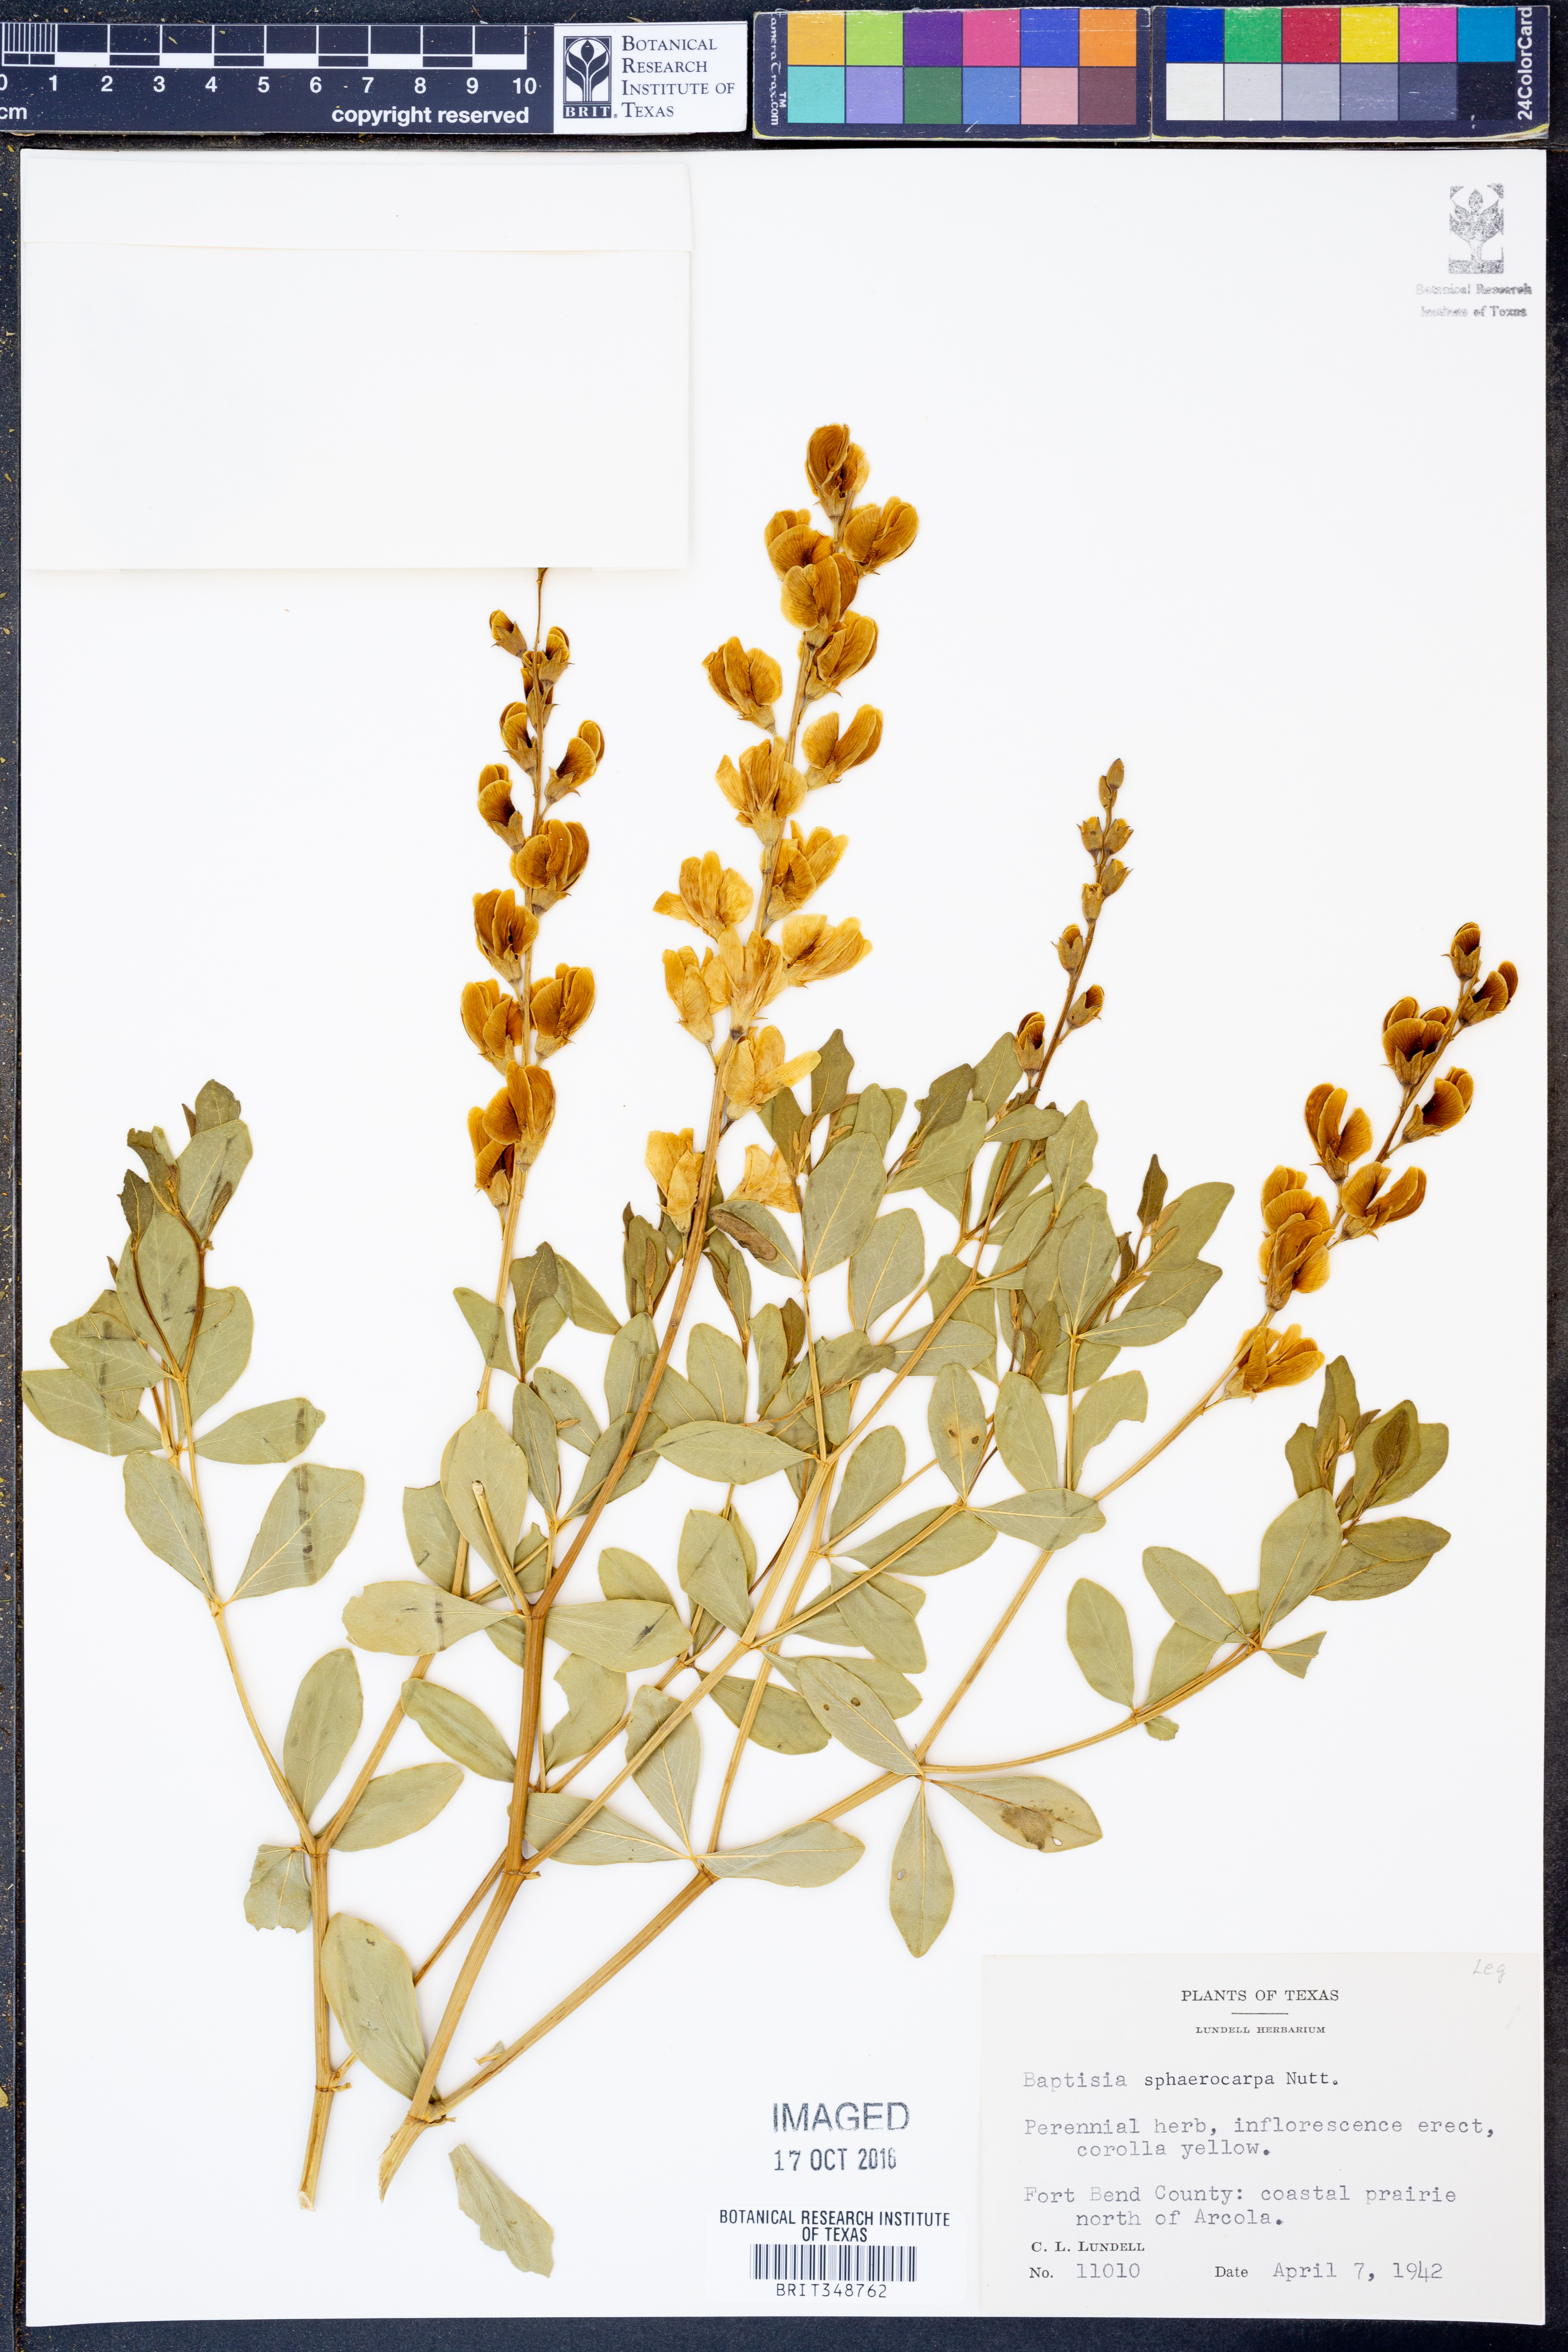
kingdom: Plantae
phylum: Tracheophyta
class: Magnoliopsida
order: Fabales
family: Fabaceae
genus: Baptisia
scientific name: Baptisia sphaerocarpa
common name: Round wild indigo
